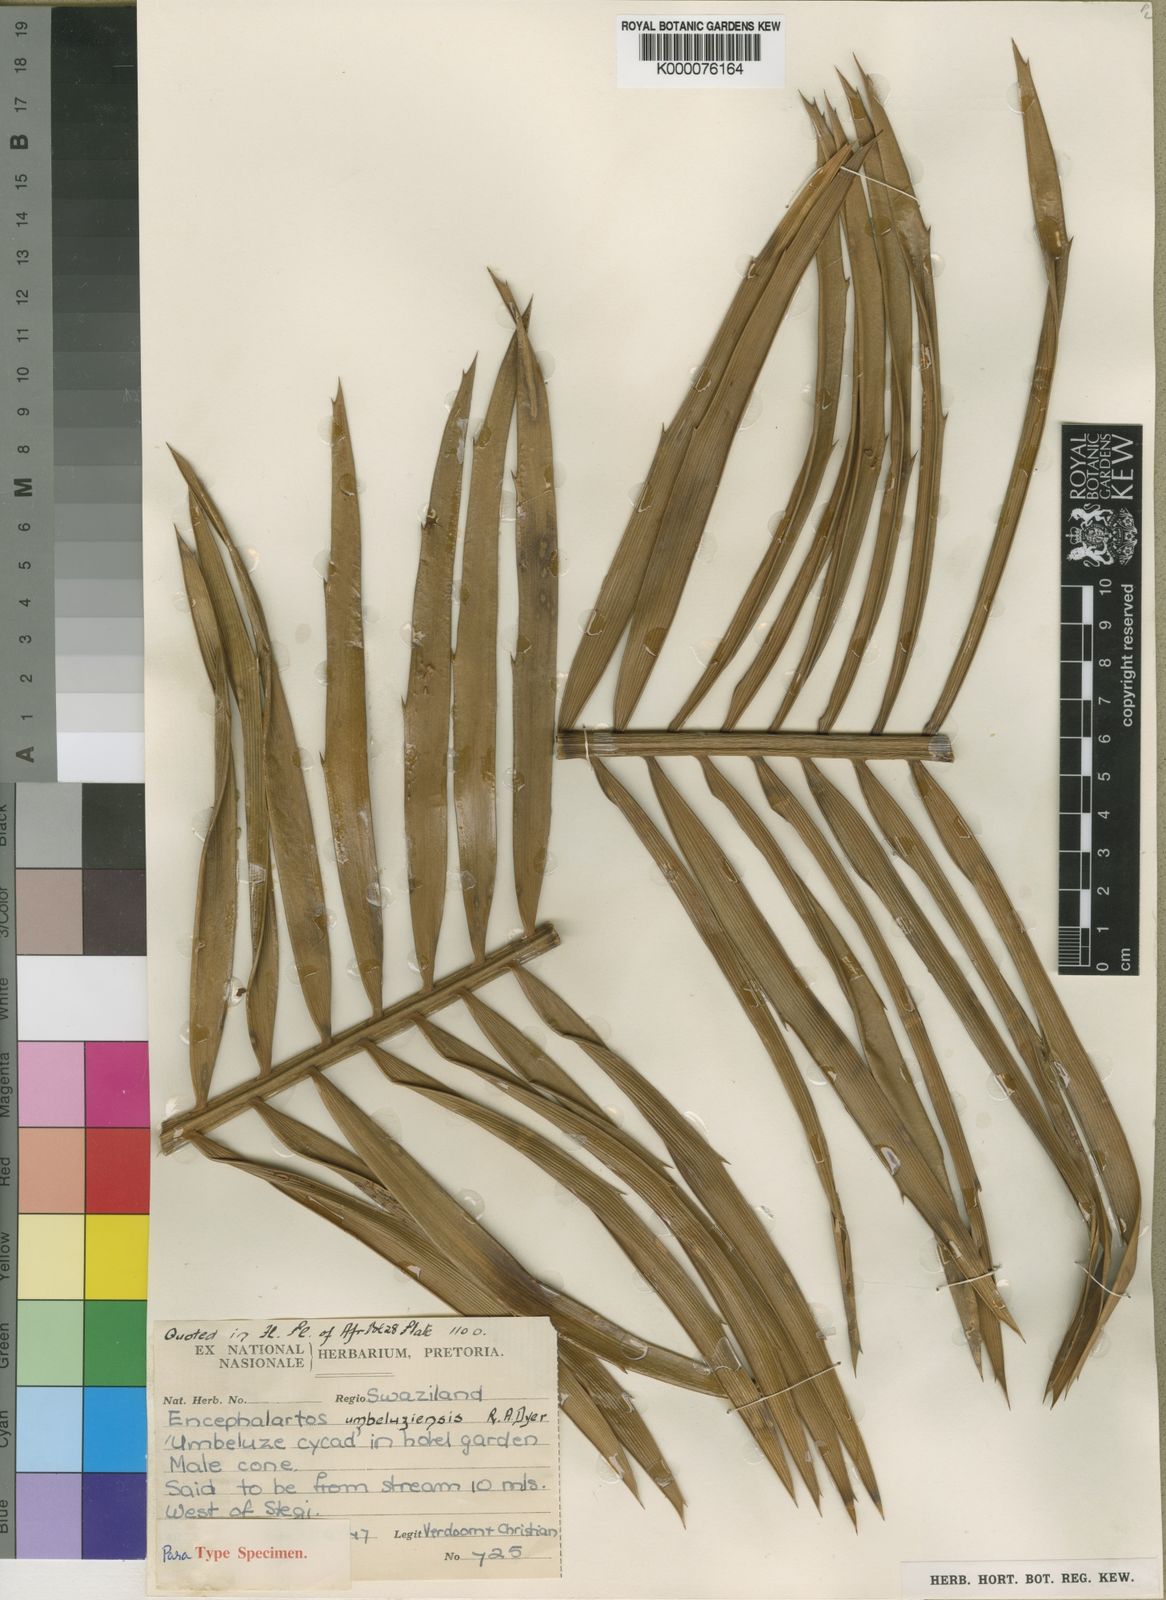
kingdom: Plantae
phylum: Tracheophyta
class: Cycadopsida
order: Cycadales
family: Zamiaceae
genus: Encephalartos
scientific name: Encephalartos umbeluziensis
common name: Umbeluzi cycad
